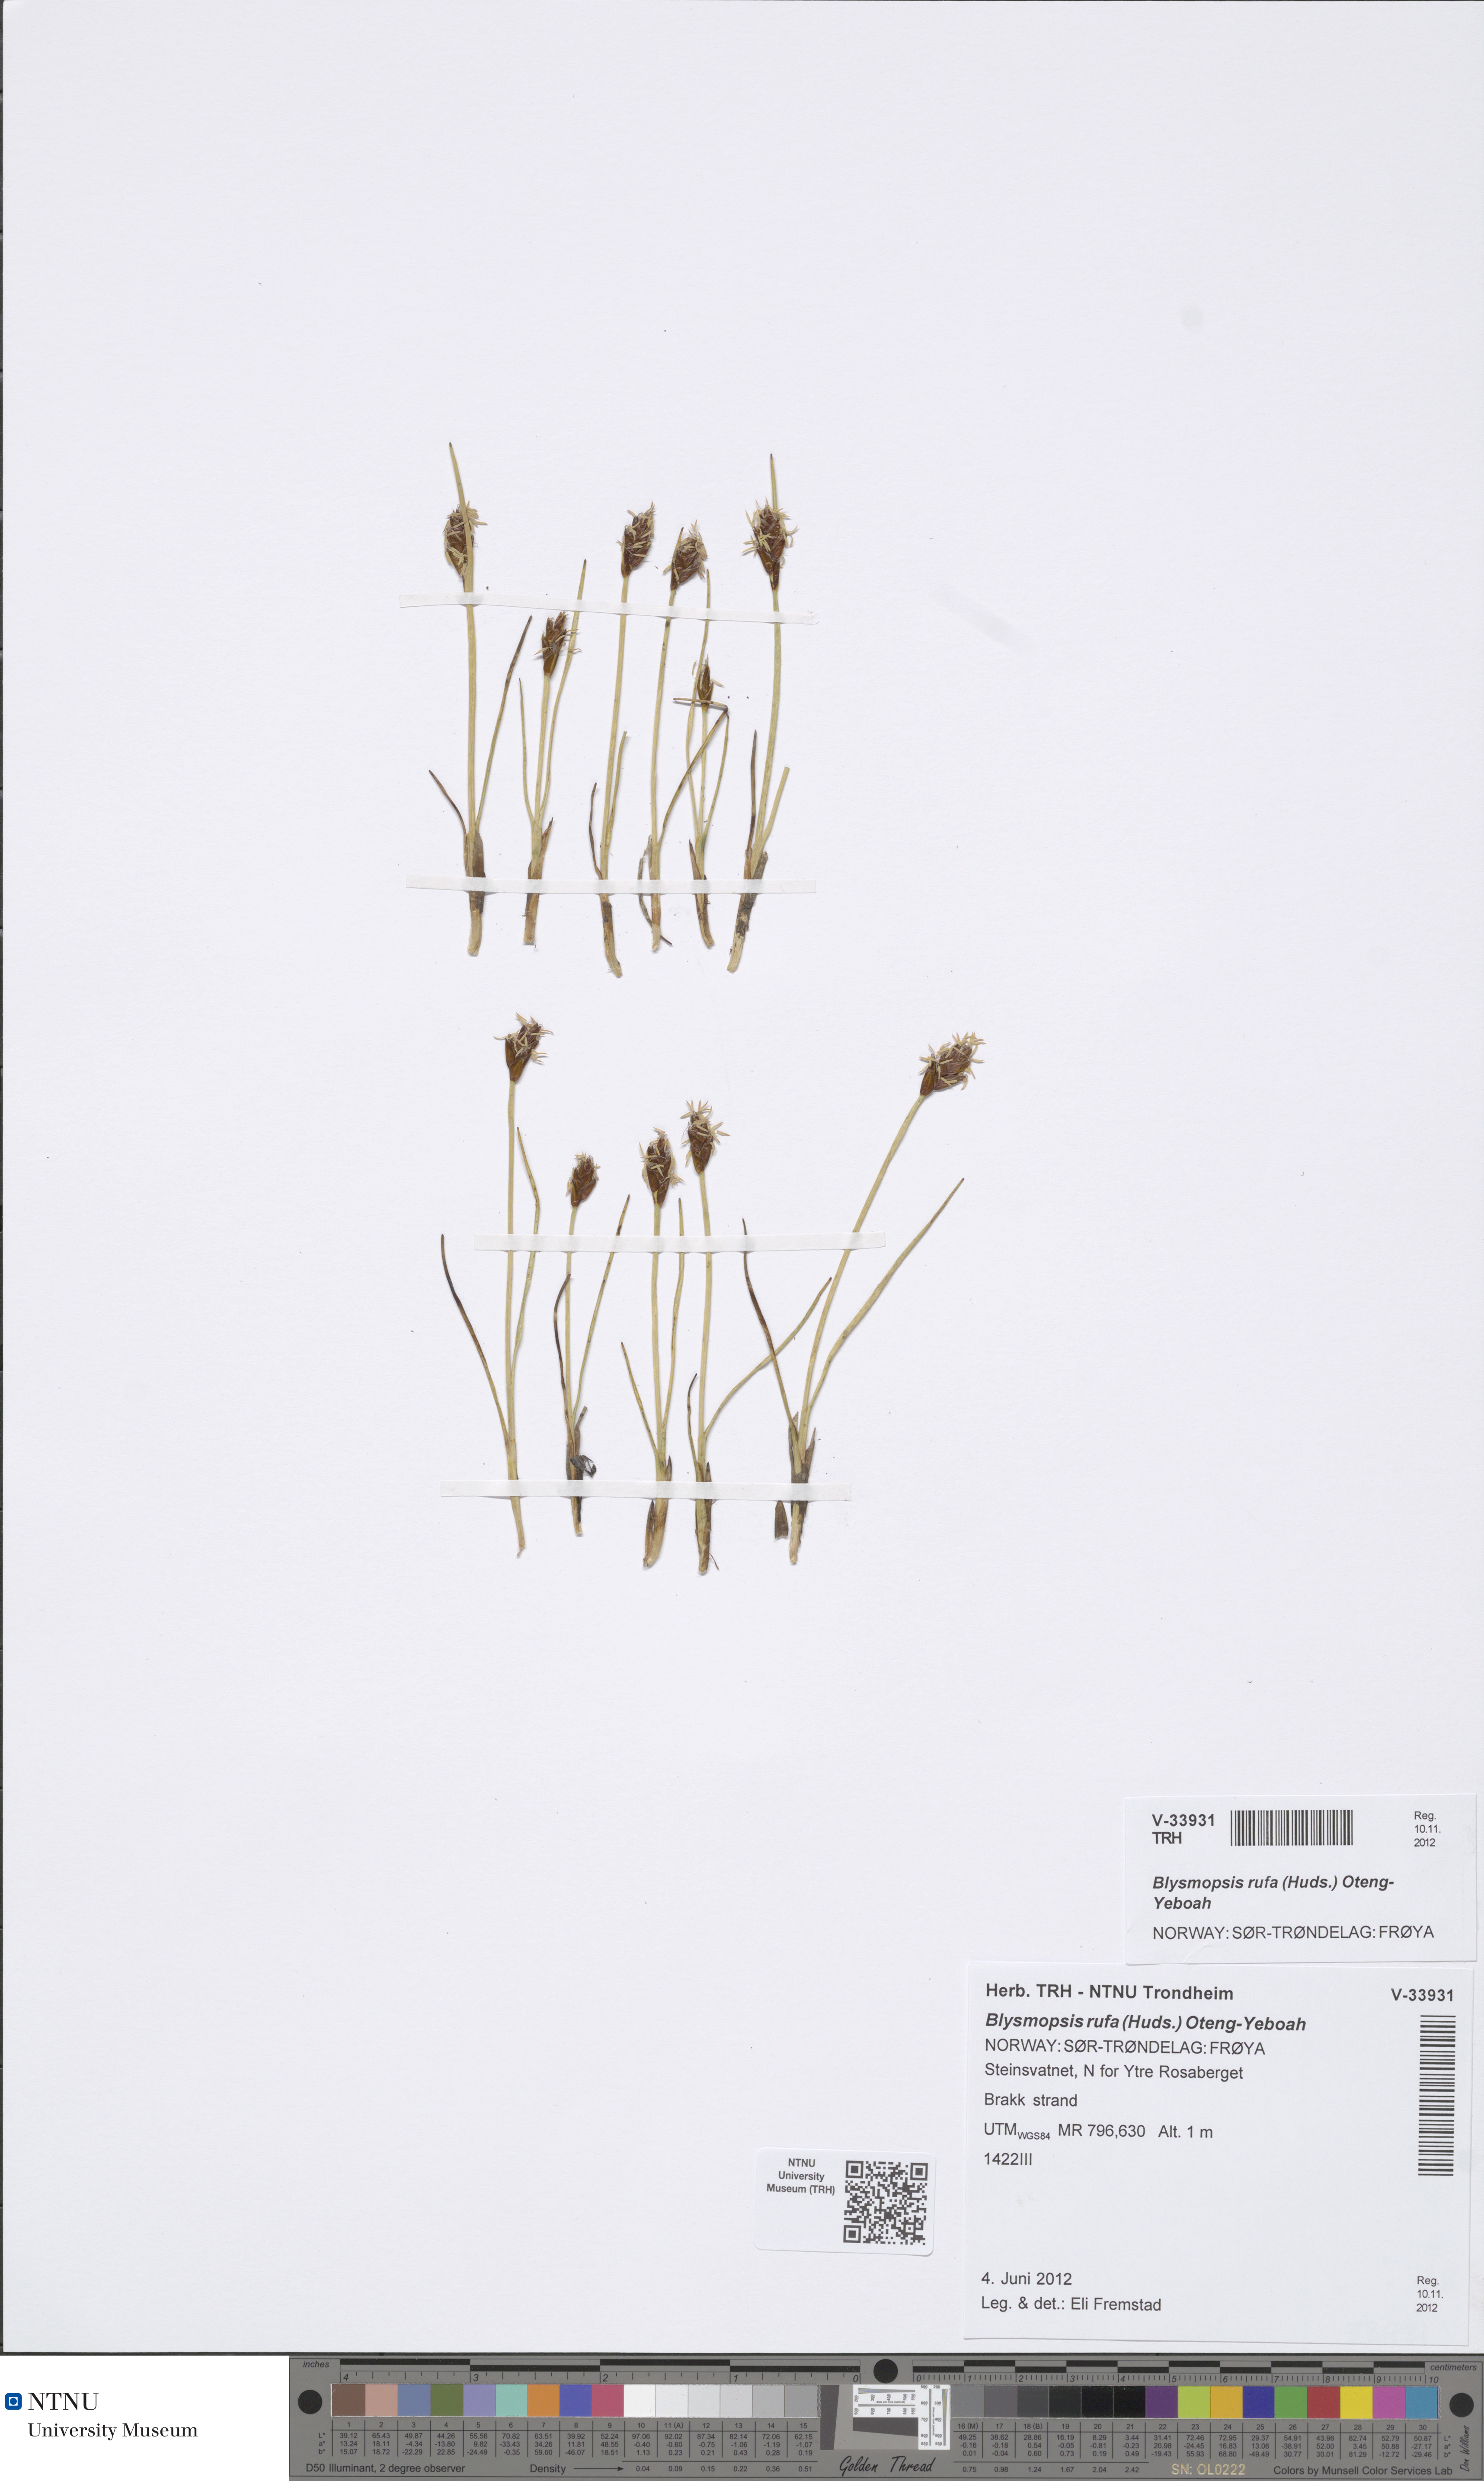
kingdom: Plantae
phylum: Tracheophyta
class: Liliopsida
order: Poales
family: Cyperaceae
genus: Blysmus
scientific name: Blysmus rufus
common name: Saltmarsh flat-sedge
